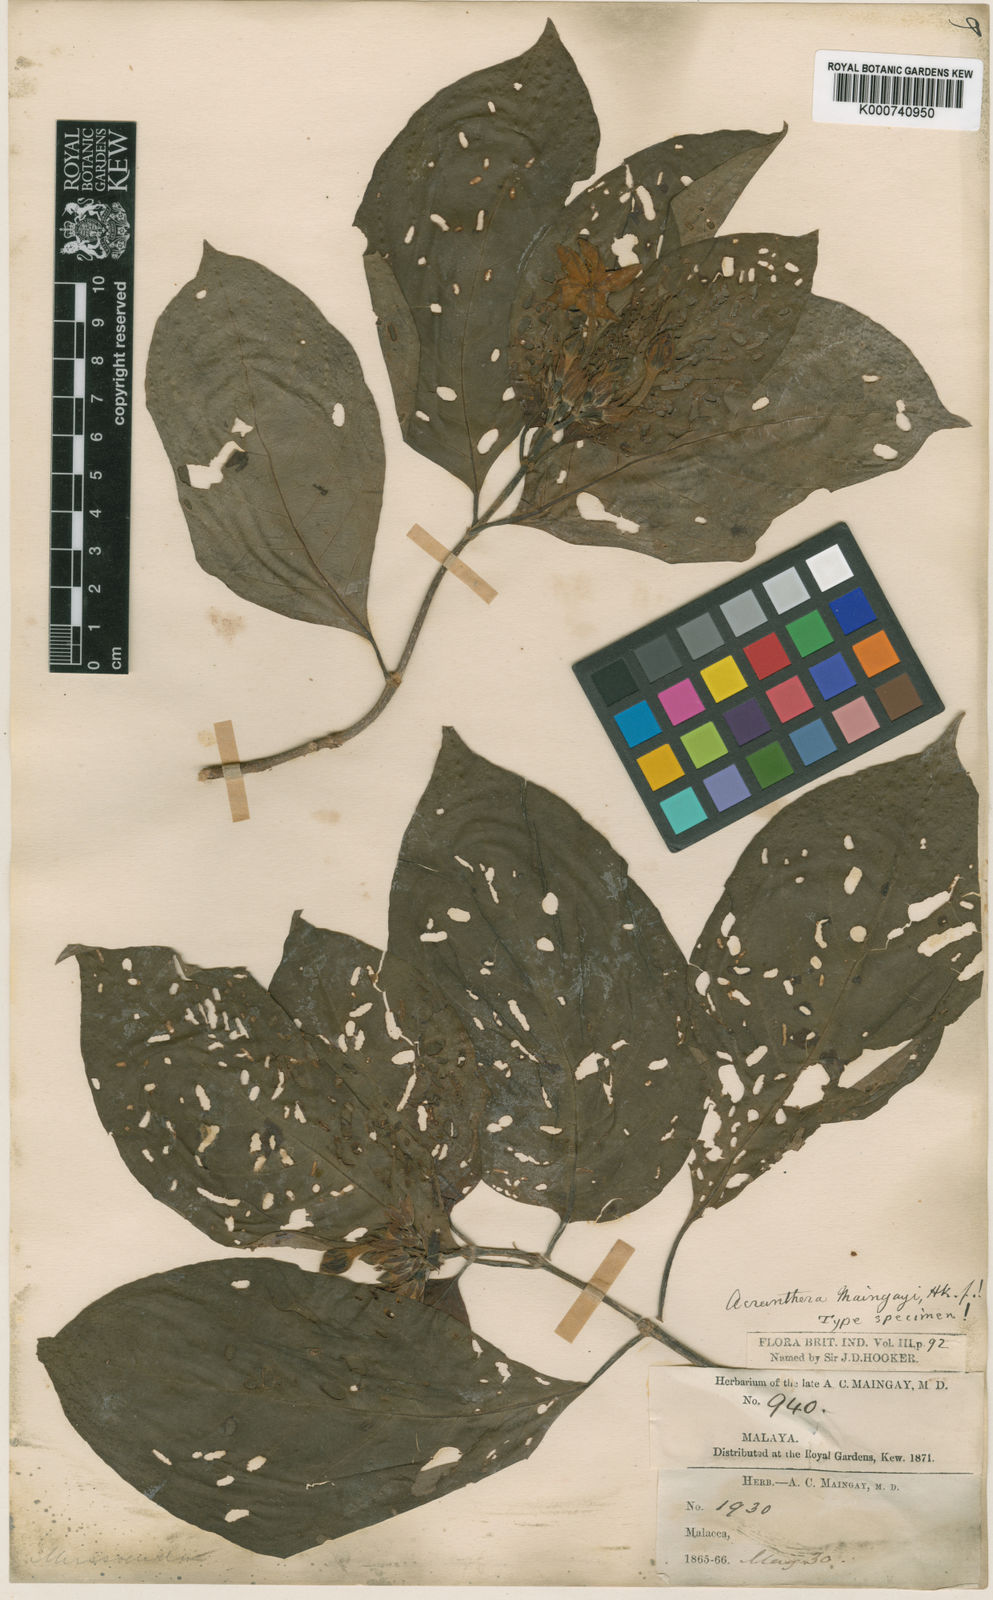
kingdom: Plantae
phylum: Tracheophyta
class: Magnoliopsida
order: Gentianales
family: Rubiaceae
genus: Mussaenda
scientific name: Mussaenda maingayi
